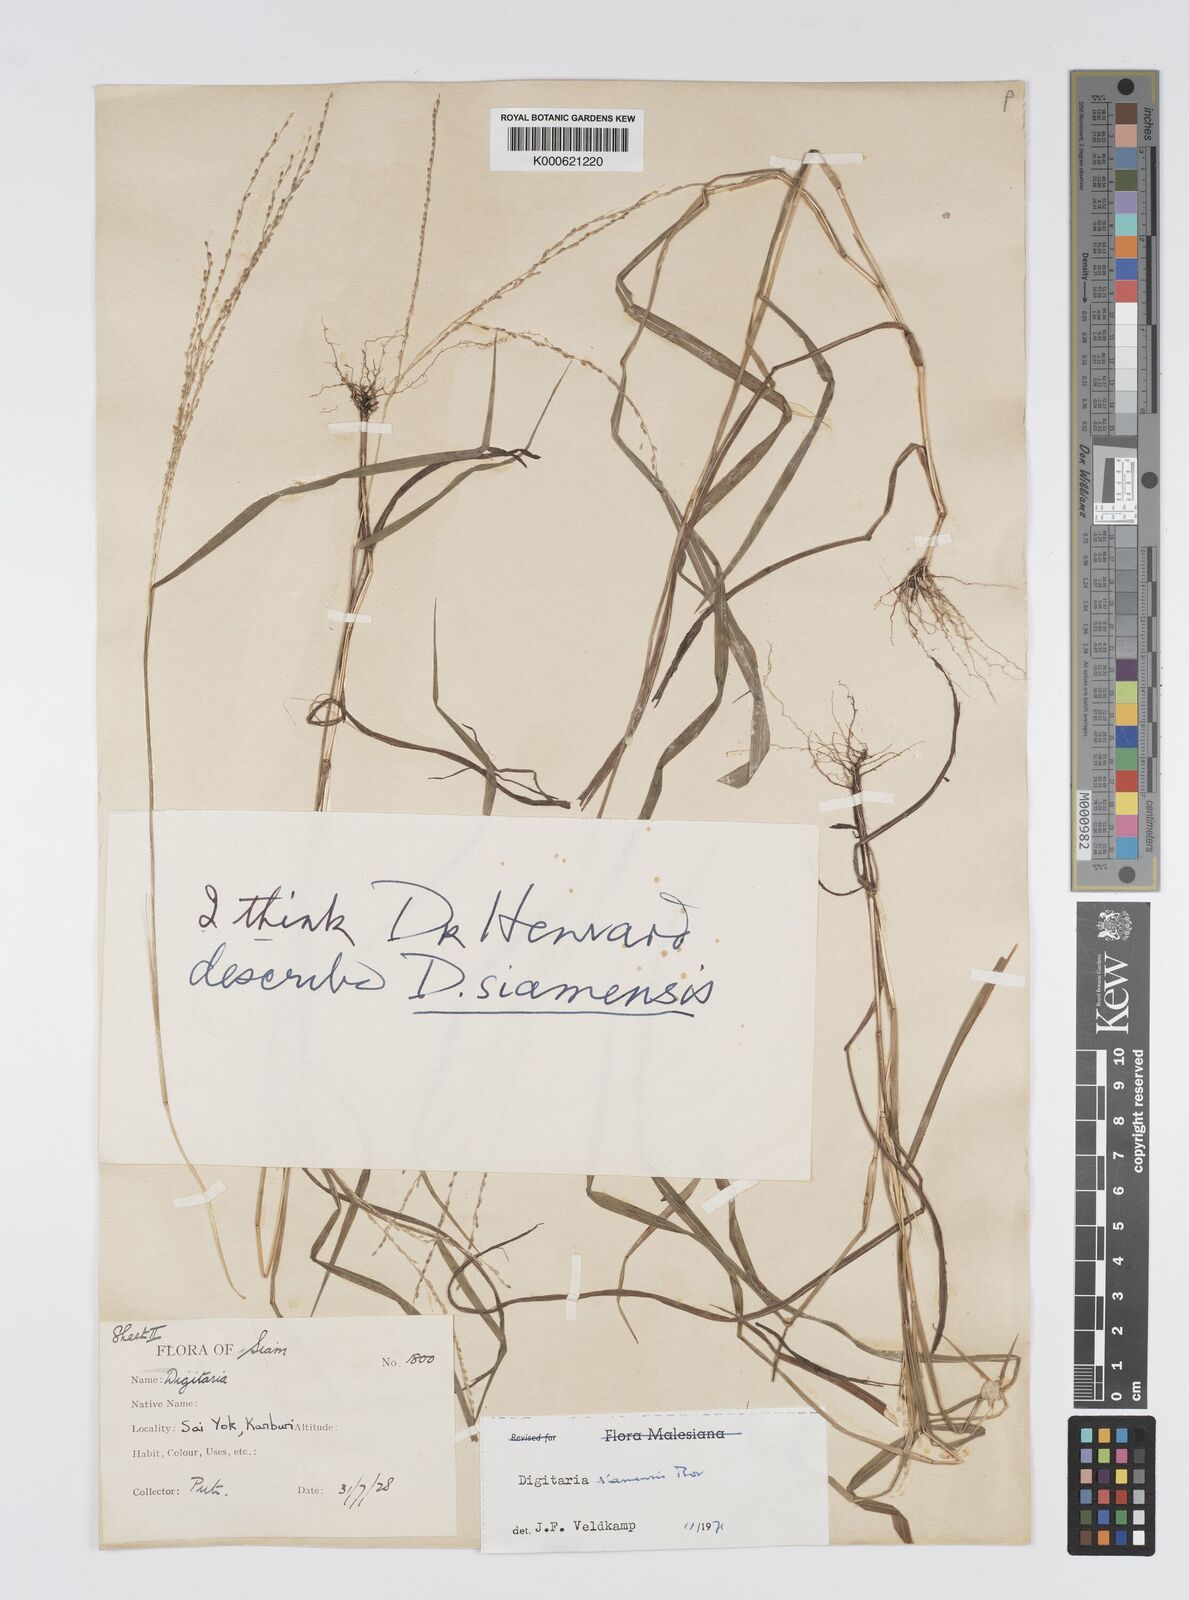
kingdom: Plantae
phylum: Tracheophyta
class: Liliopsida
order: Poales
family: Poaceae
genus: Digitaria
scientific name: Digitaria sparsifructus
